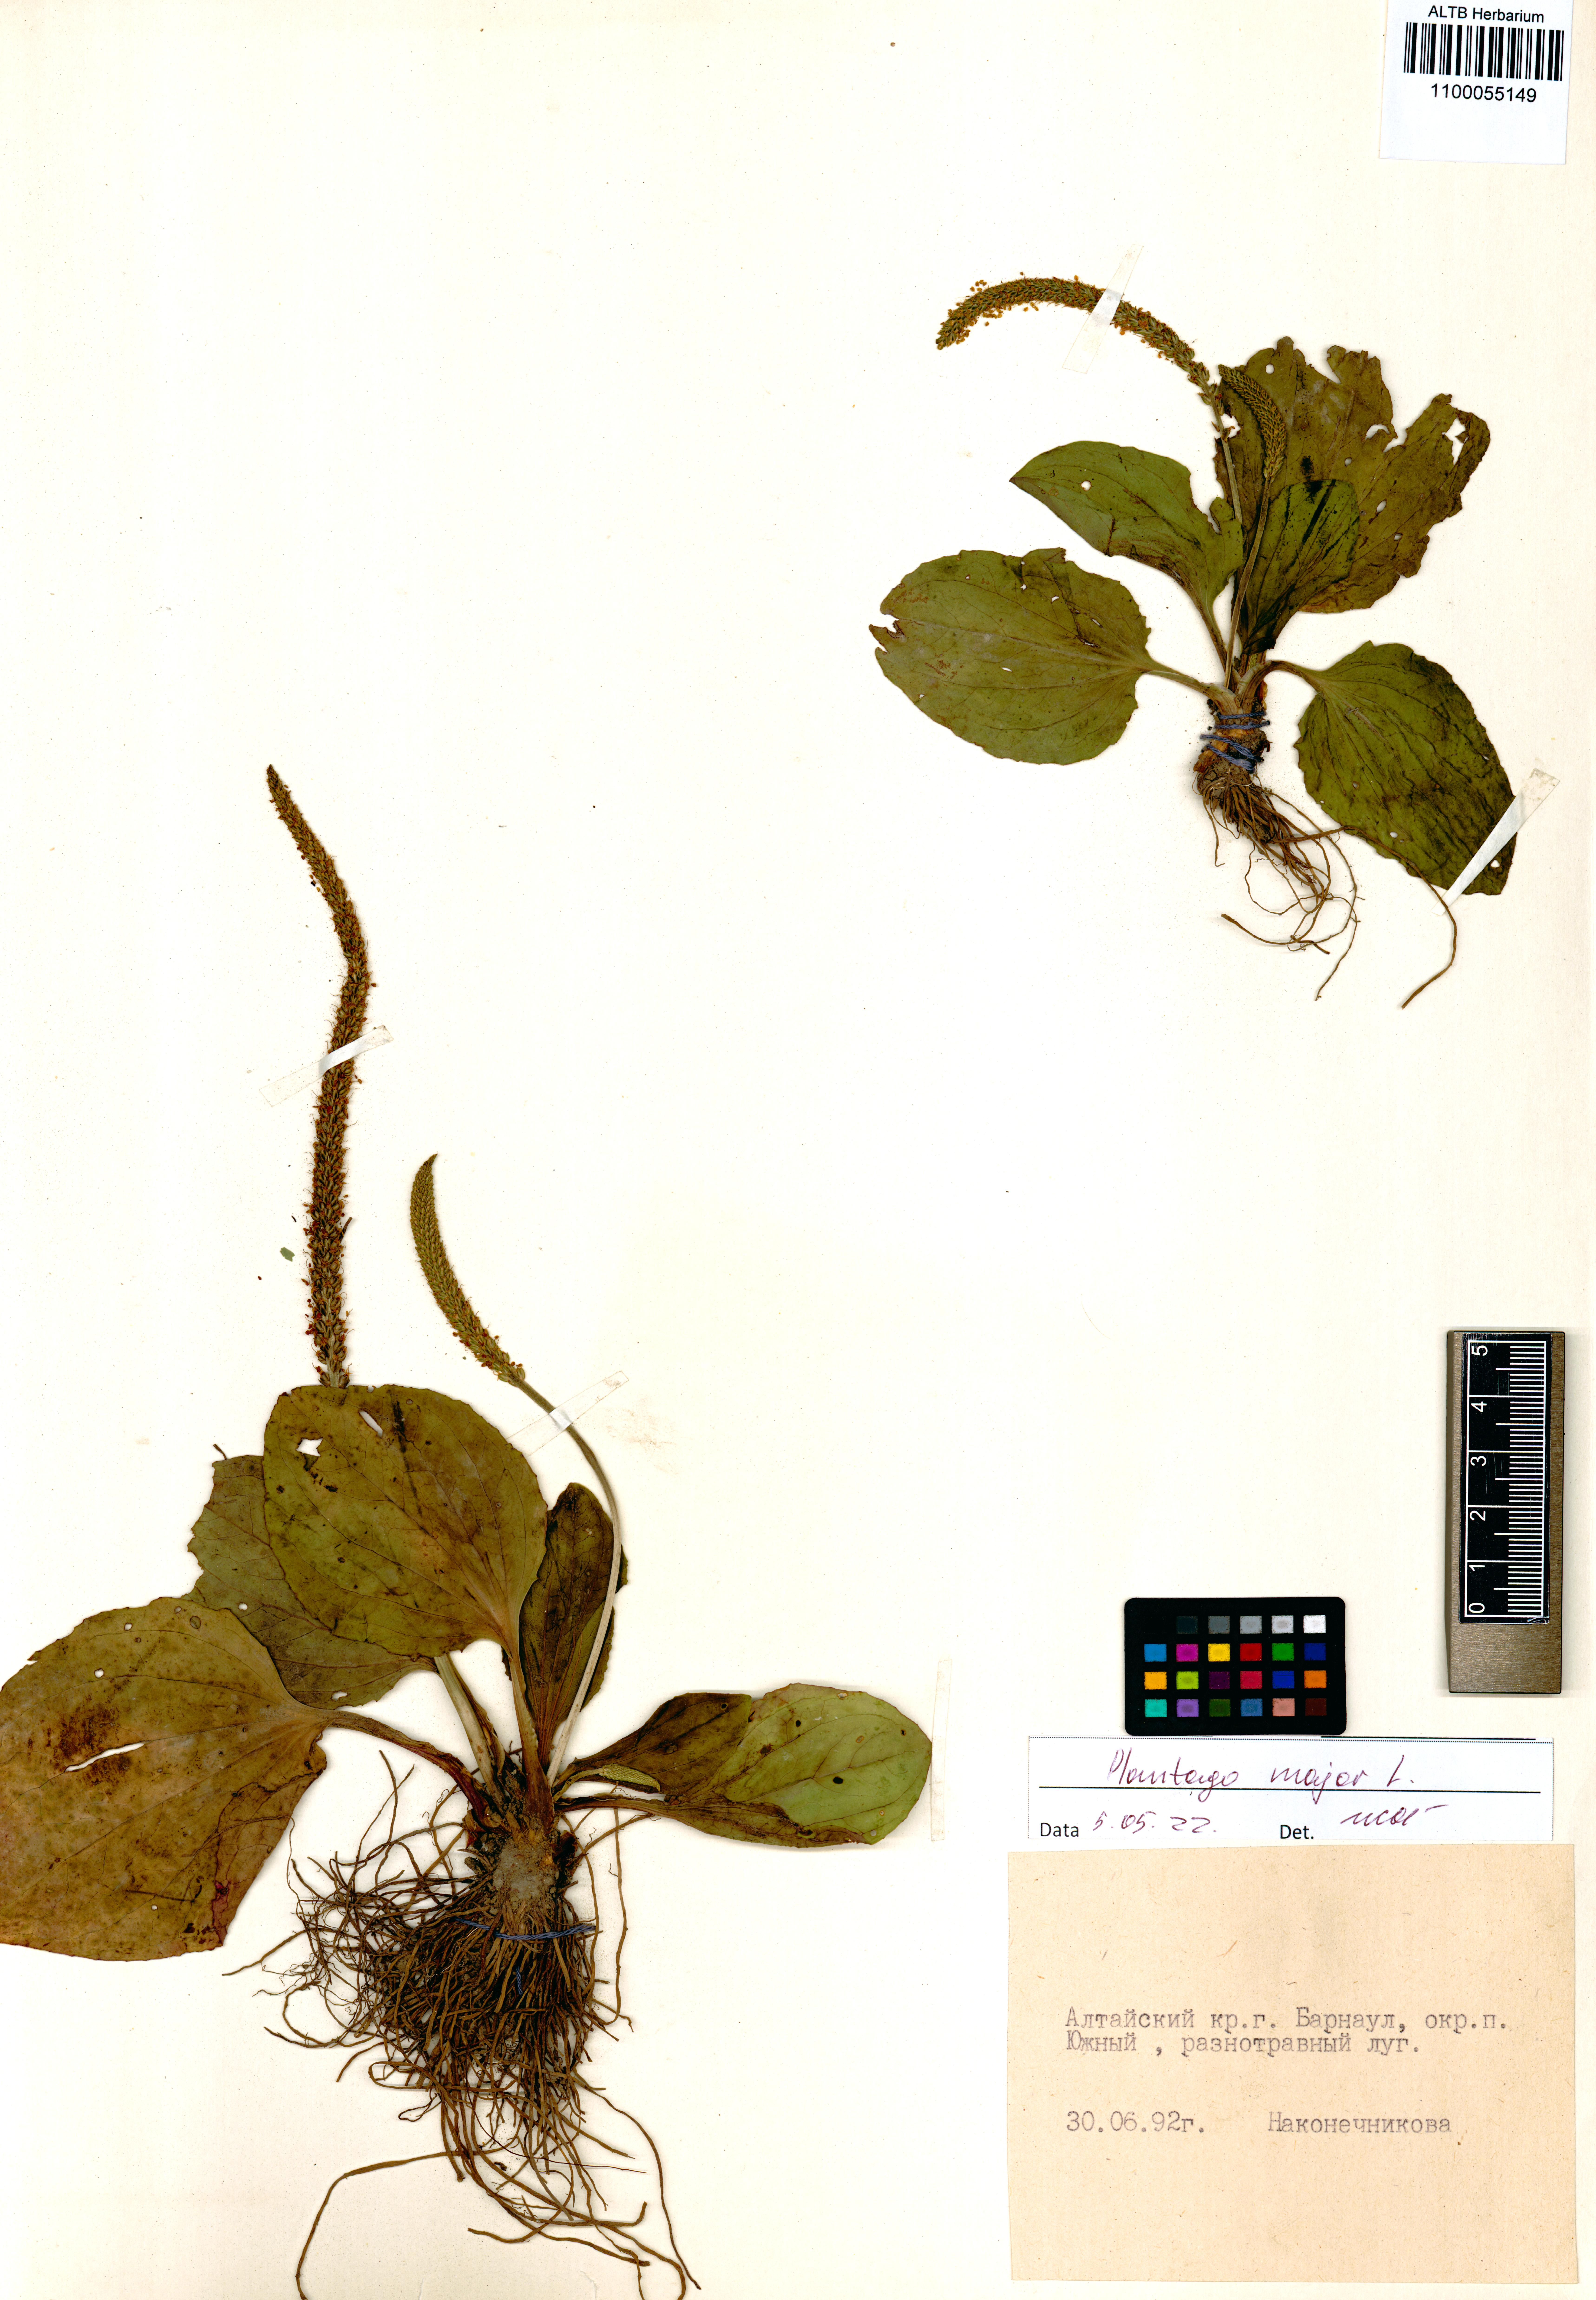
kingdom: Plantae
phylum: Tracheophyta
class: Magnoliopsida
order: Lamiales
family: Plantaginaceae
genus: Plantago
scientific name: Plantago major
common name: Common plantain
